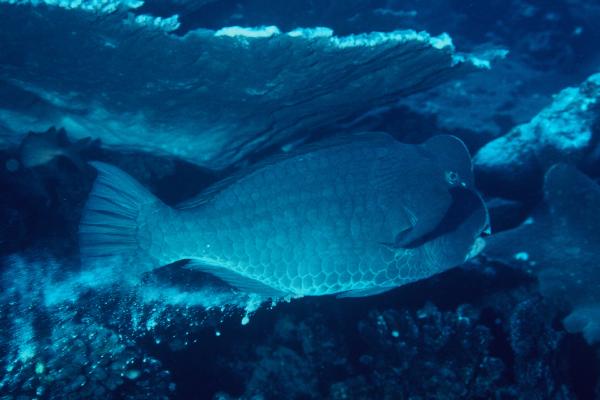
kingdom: Animalia
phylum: Chordata
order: Perciformes
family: Scaridae
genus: Bolbometopon
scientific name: Bolbometopon muricatum
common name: Humphead parrotfish
